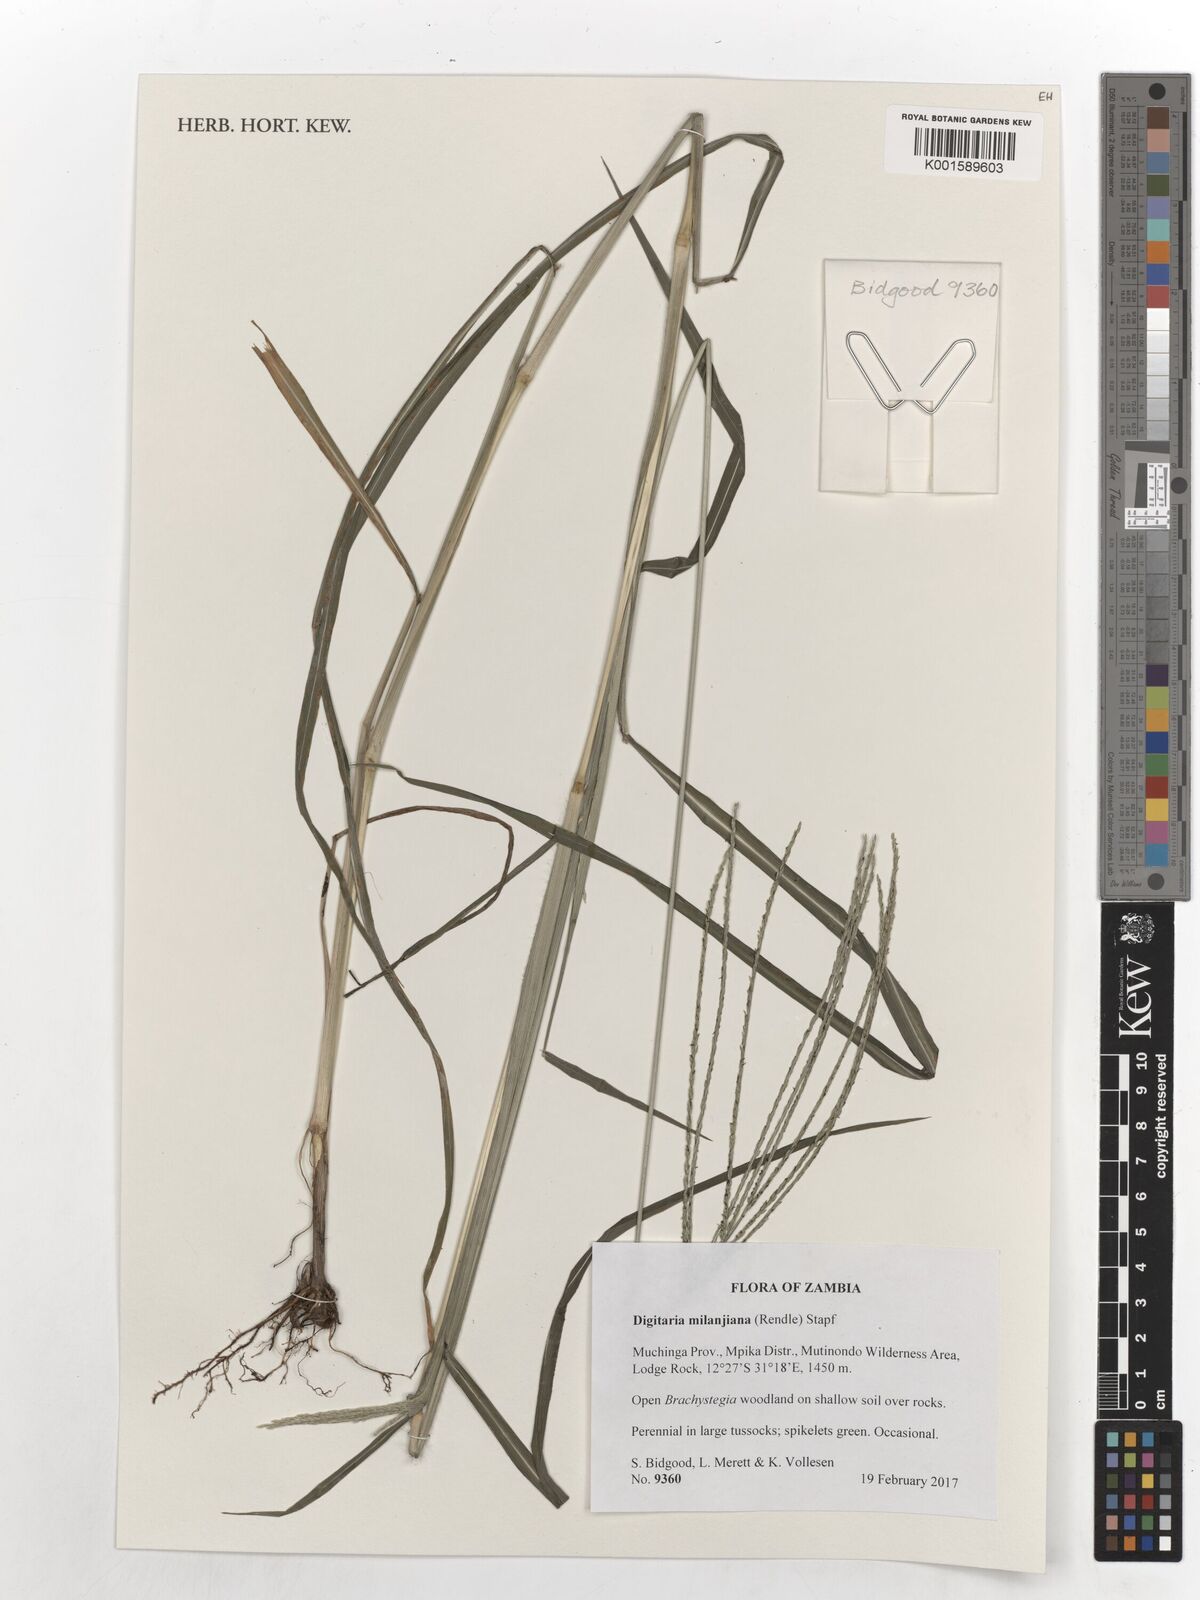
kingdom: Plantae
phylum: Tracheophyta
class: Liliopsida
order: Poales
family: Poaceae
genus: Digitaria
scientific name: Digitaria milanjiana
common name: Madagascar crabgrass
